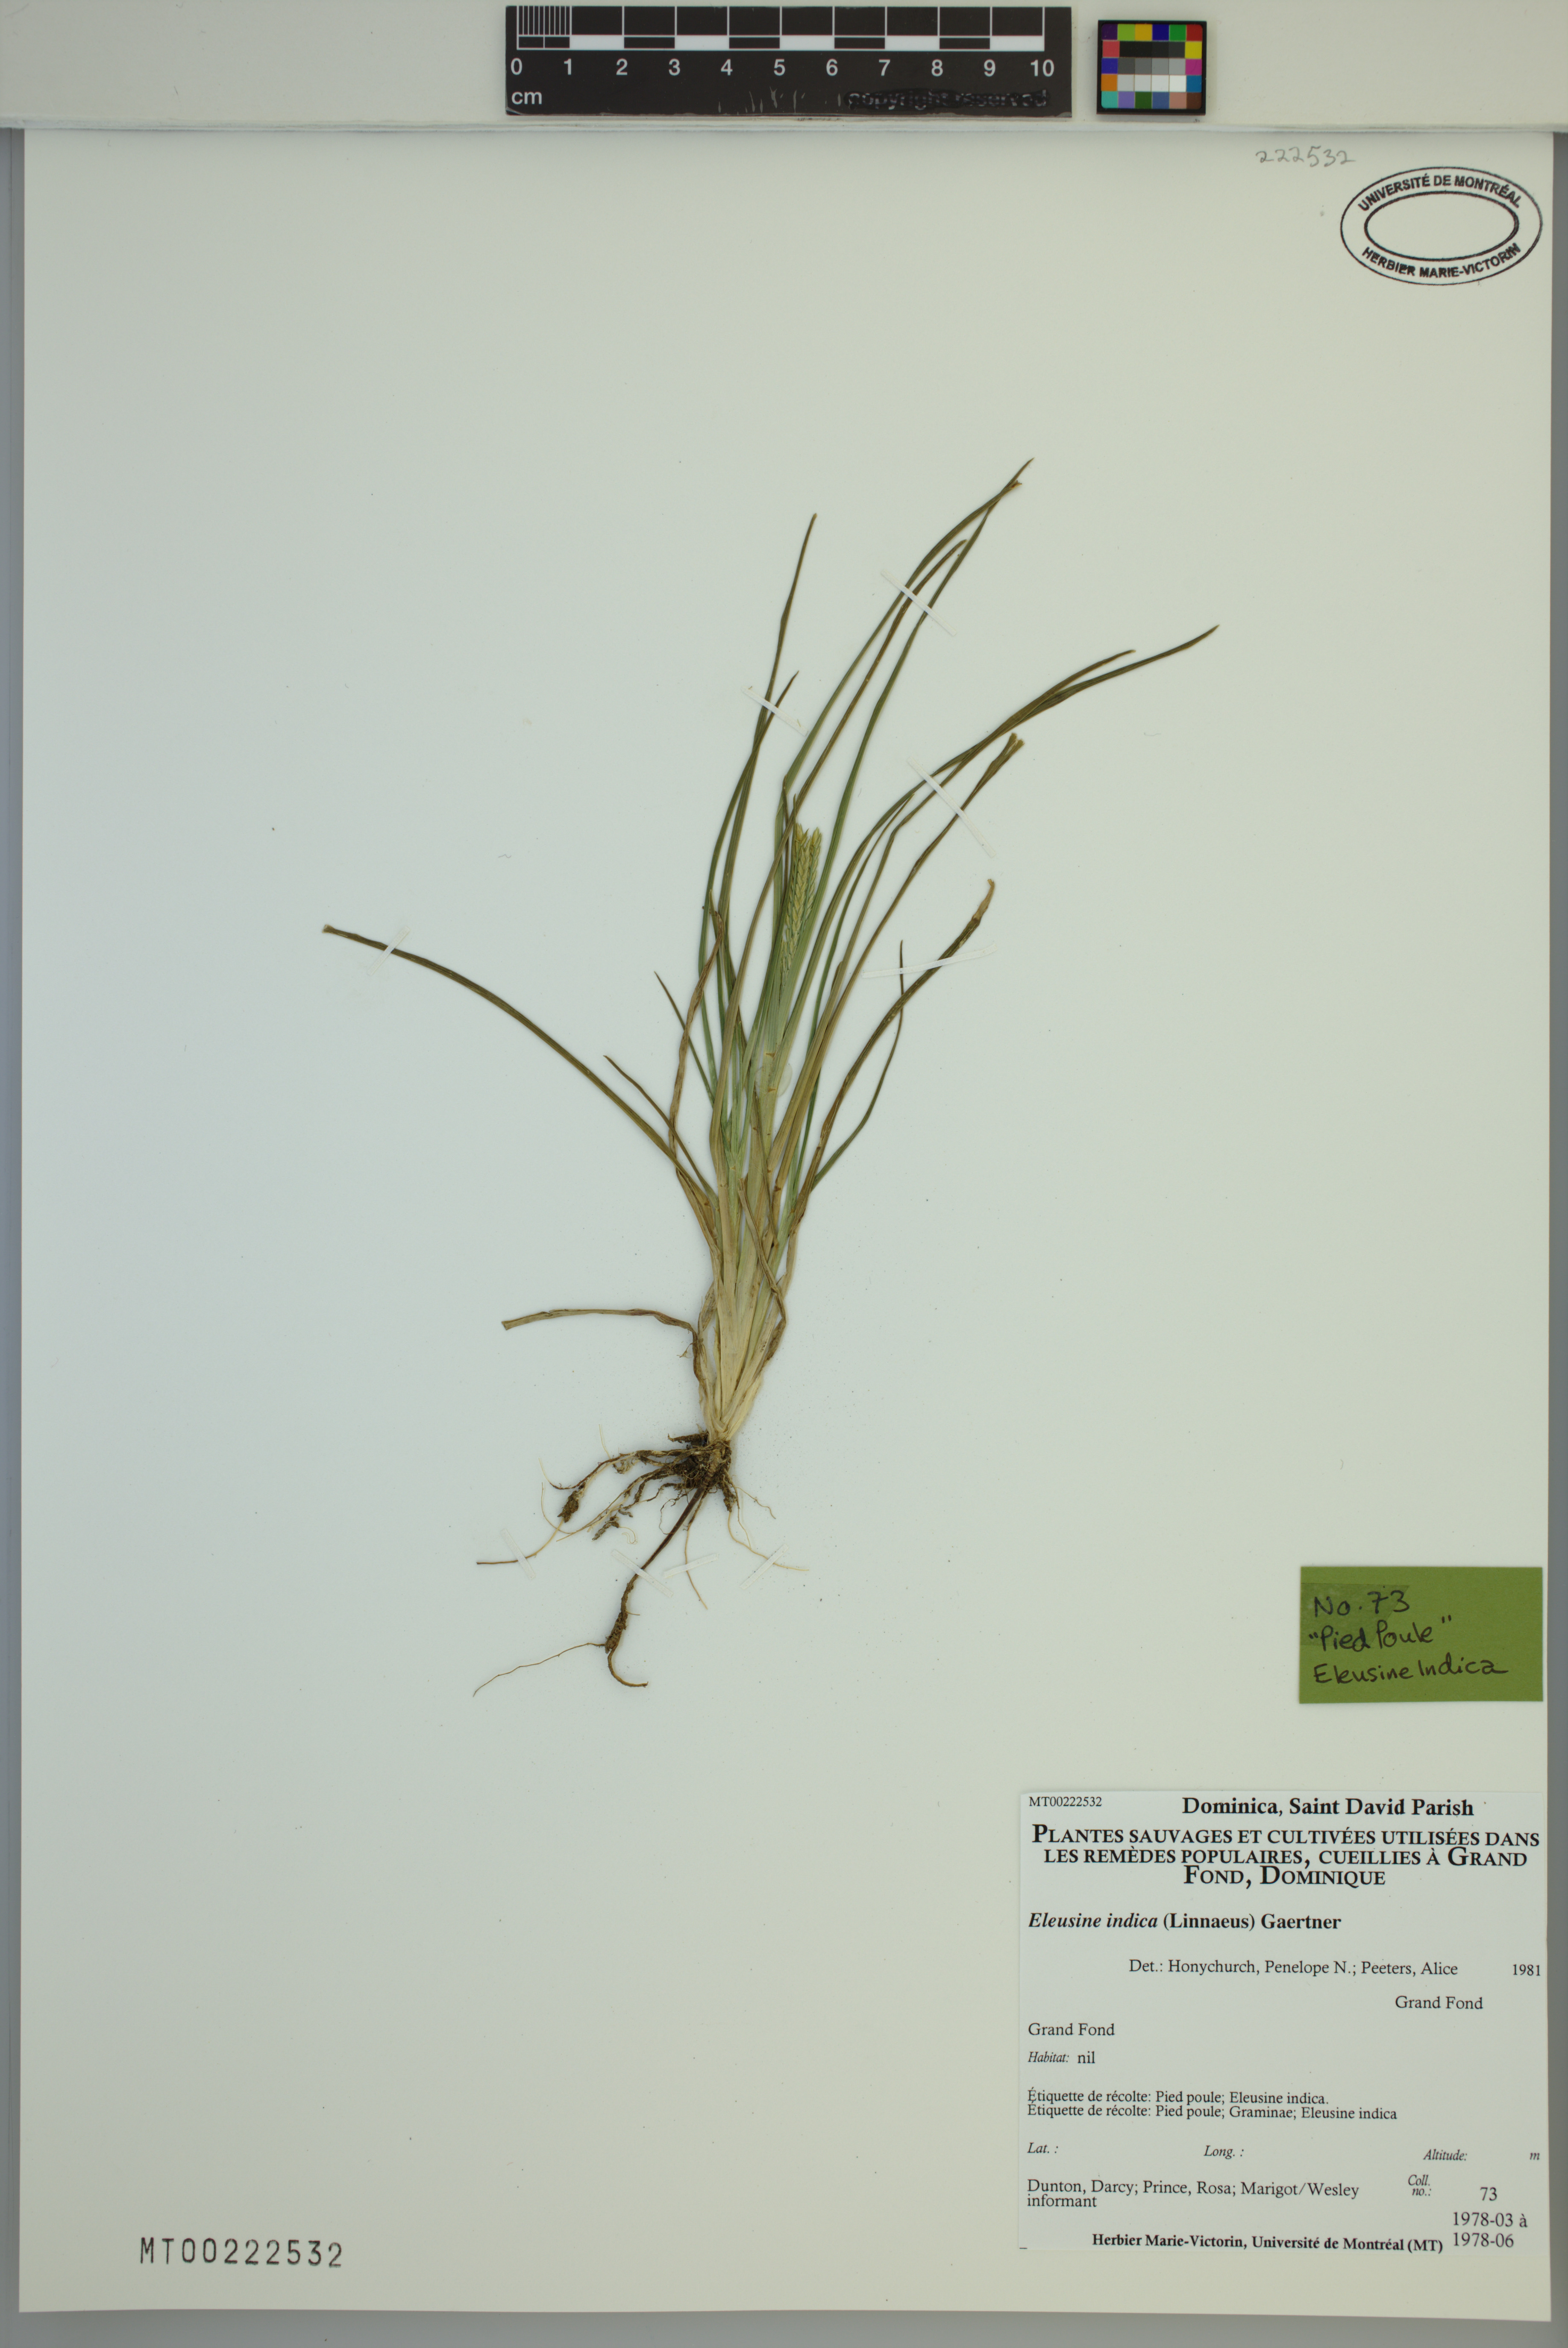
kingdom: Plantae
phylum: Tracheophyta
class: Liliopsida
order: Poales
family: Poaceae
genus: Eleusine
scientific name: Eleusine indica
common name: Yard-grass
